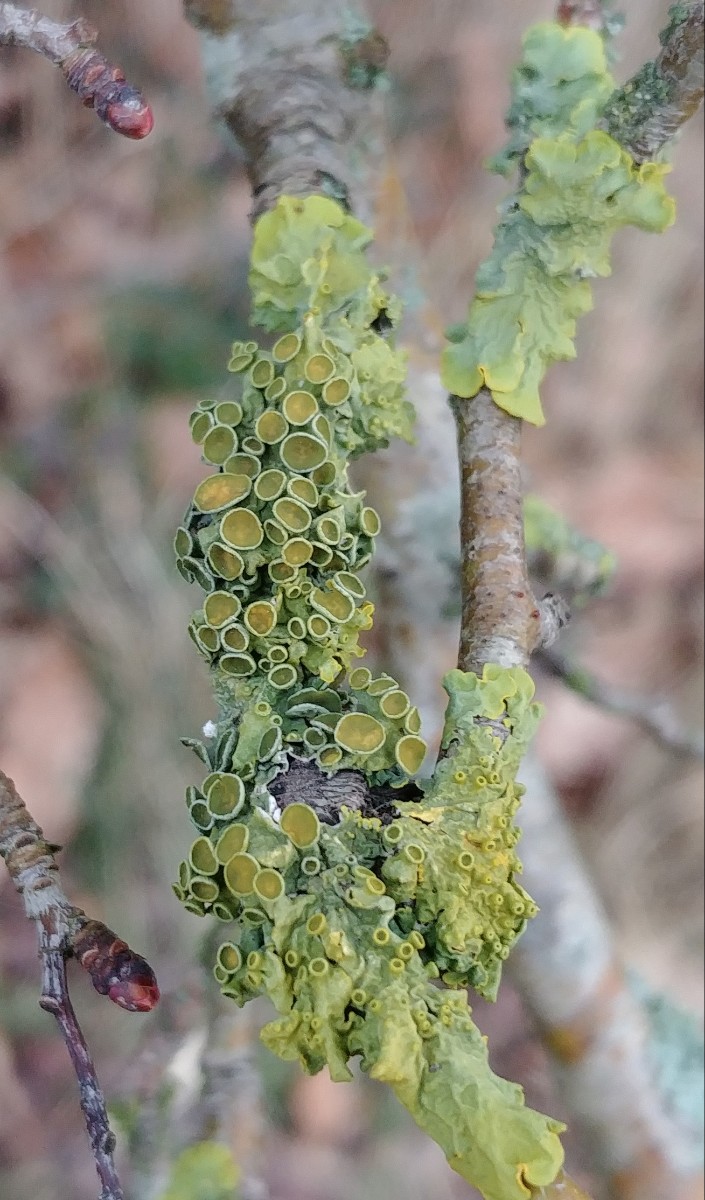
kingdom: Fungi
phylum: Ascomycota
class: Lecanoromycetes
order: Teloschistales
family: Teloschistaceae
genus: Xanthoria
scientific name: Xanthoria parietina
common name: almindelig væggelav
